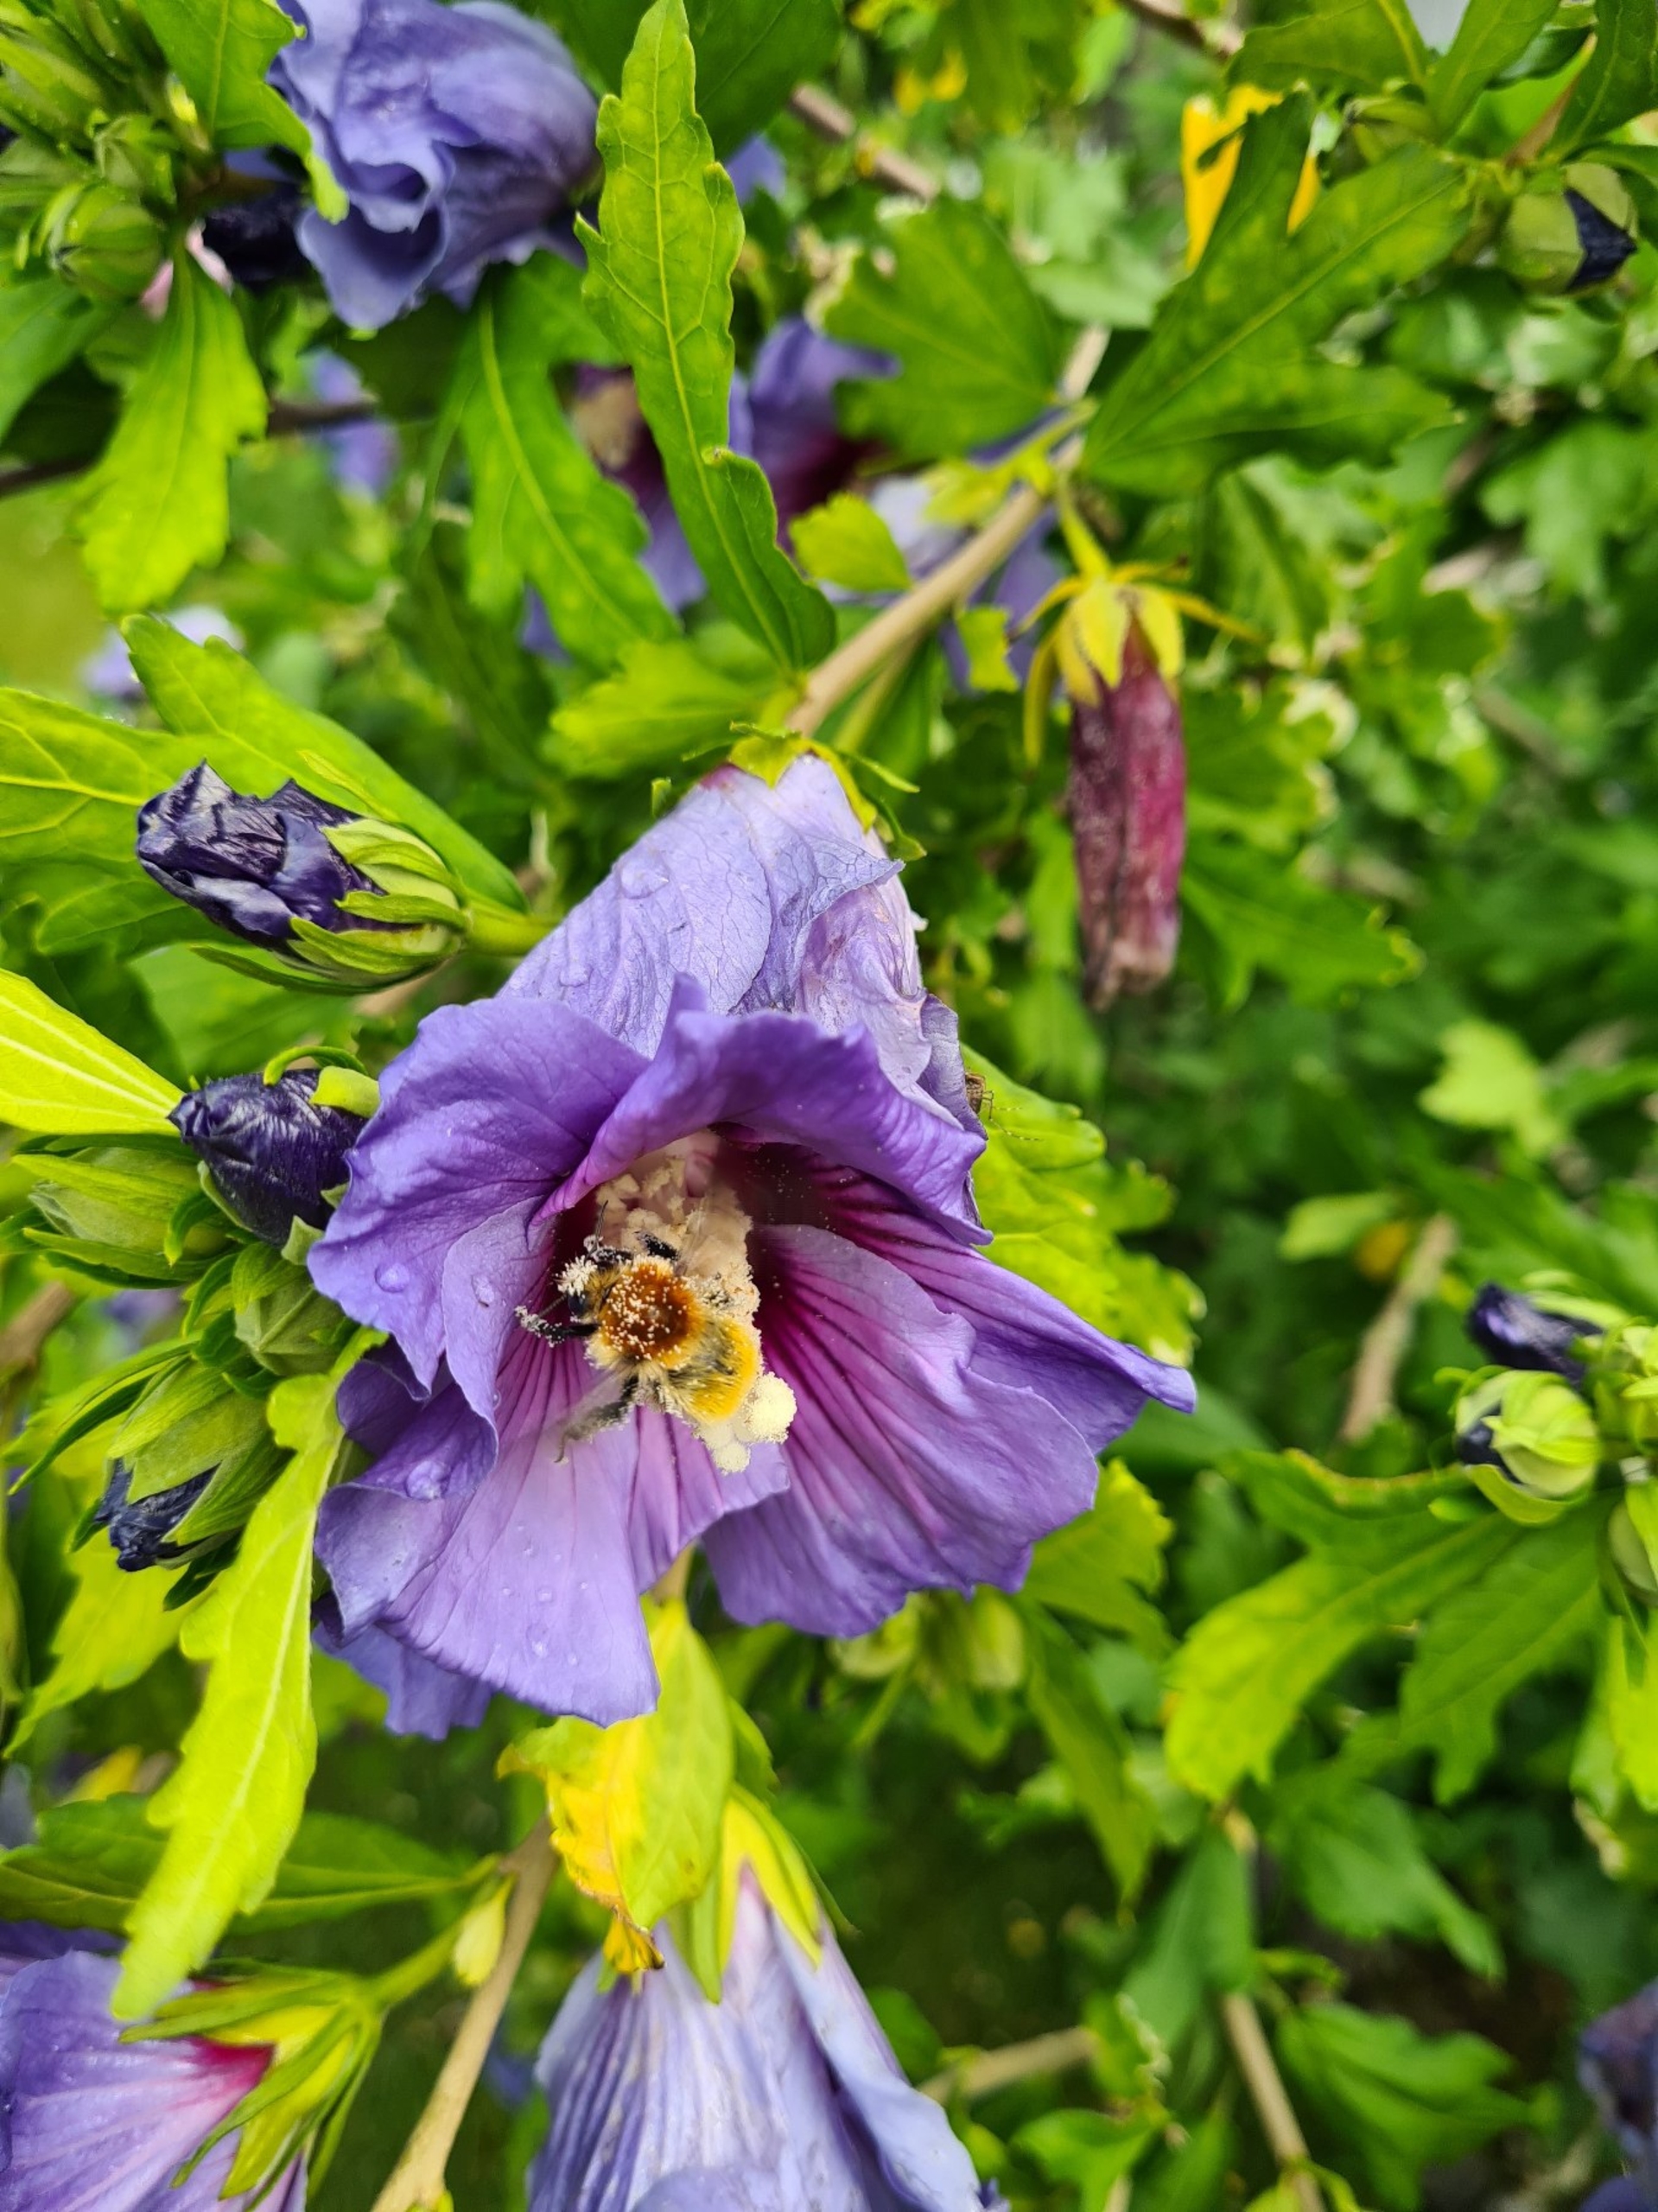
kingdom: Animalia
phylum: Arthropoda
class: Insecta
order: Hymenoptera
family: Apidae
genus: Bombus
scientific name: Bombus muscorum
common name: Moshumle
